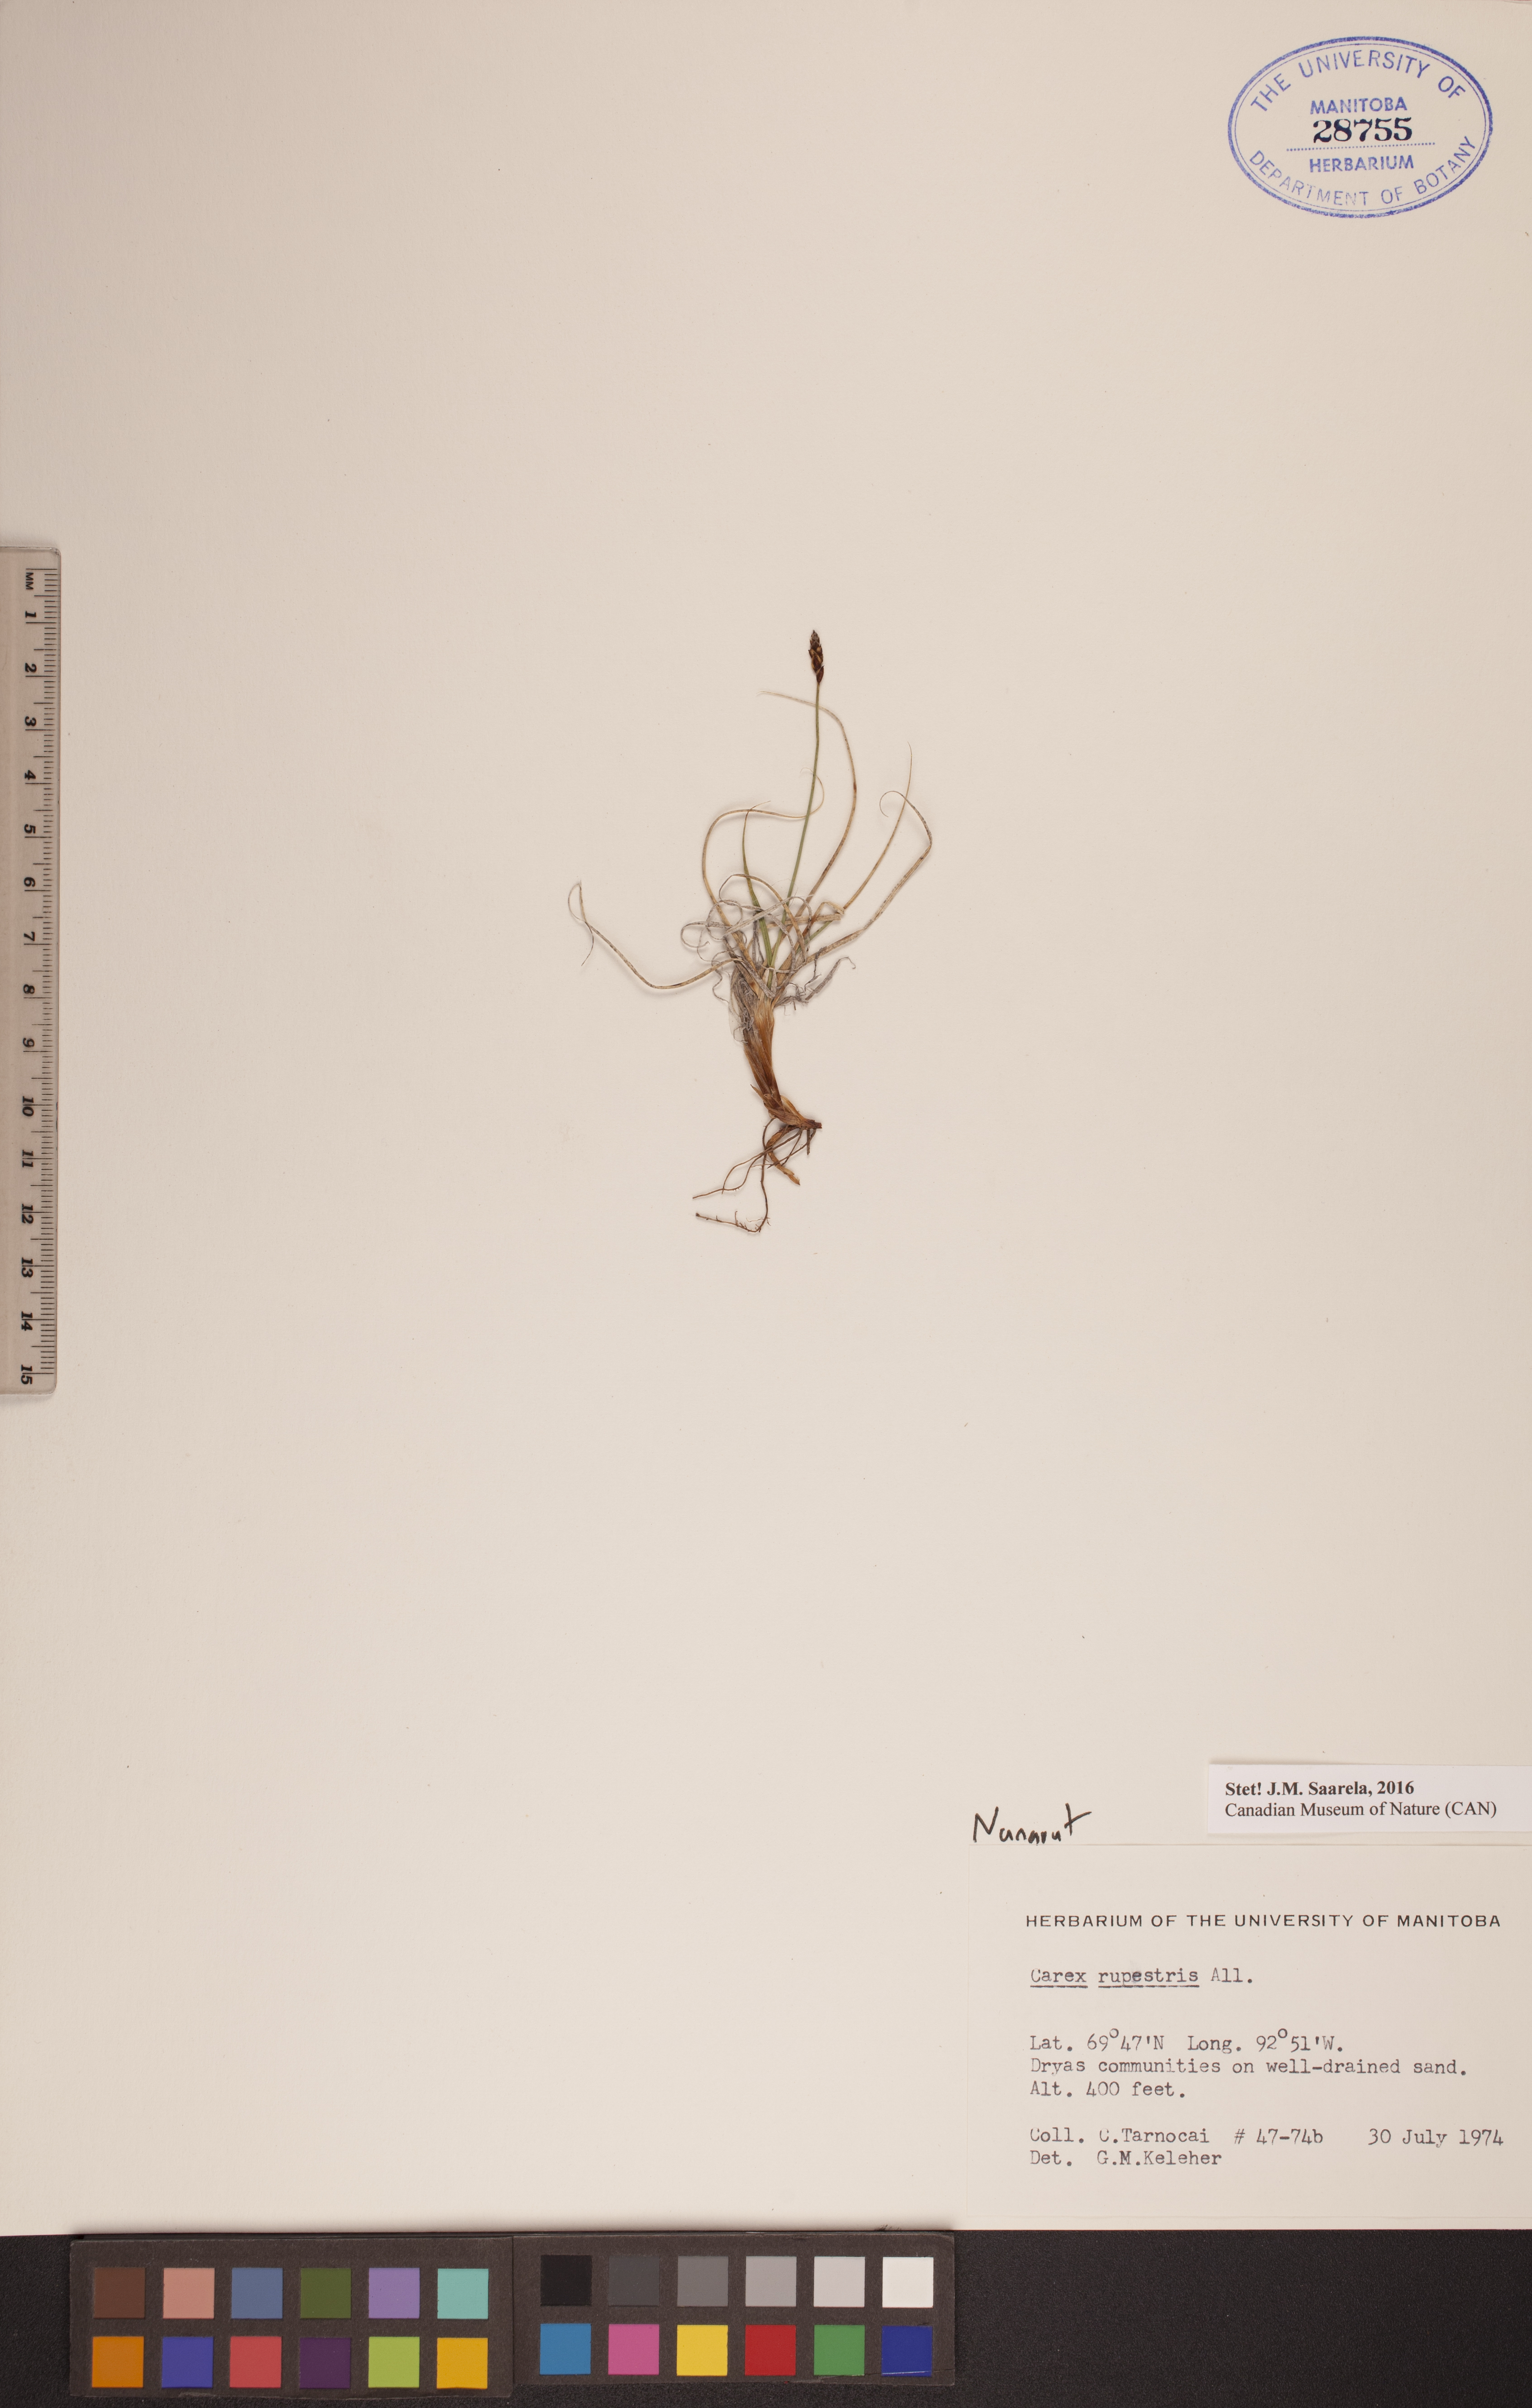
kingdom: Plantae
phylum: Tracheophyta
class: Liliopsida
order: Poales
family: Cyperaceae
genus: Carex
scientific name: Carex rupestris
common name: Rock sedge
